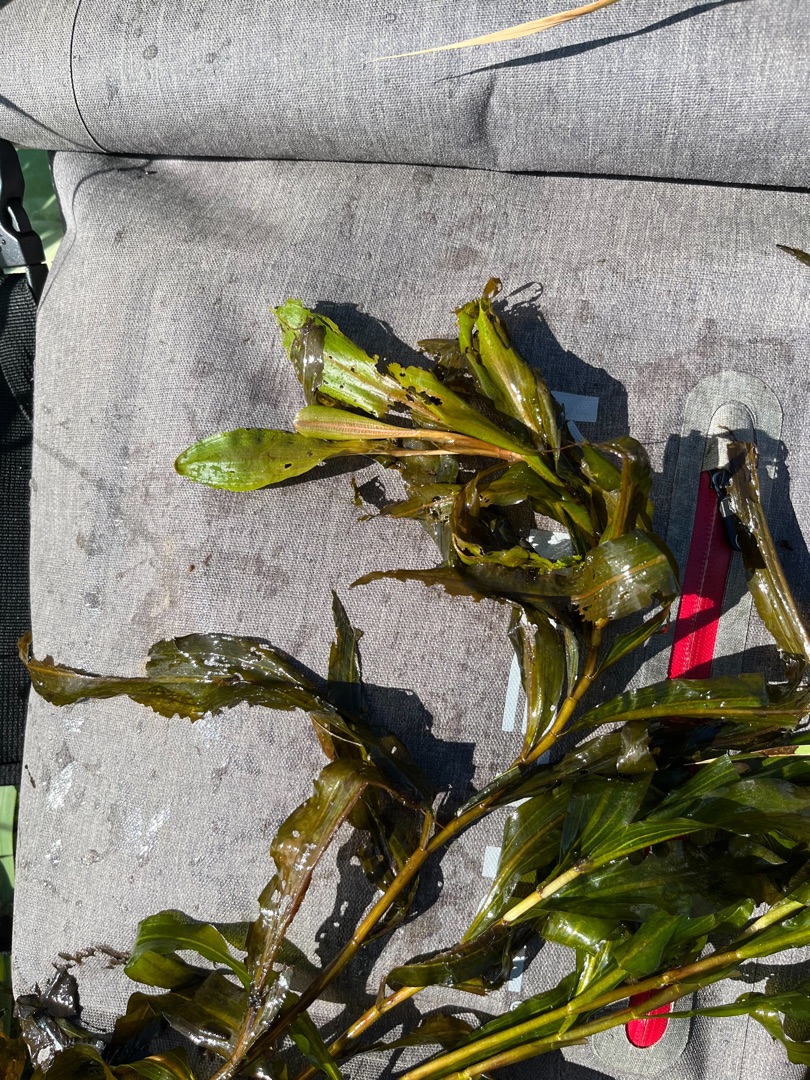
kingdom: Plantae
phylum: Tracheophyta
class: Liliopsida
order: Alismatales
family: Potamogetonaceae
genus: Potamogeton
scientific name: Potamogeton alpinus
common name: Rust-vandaks
